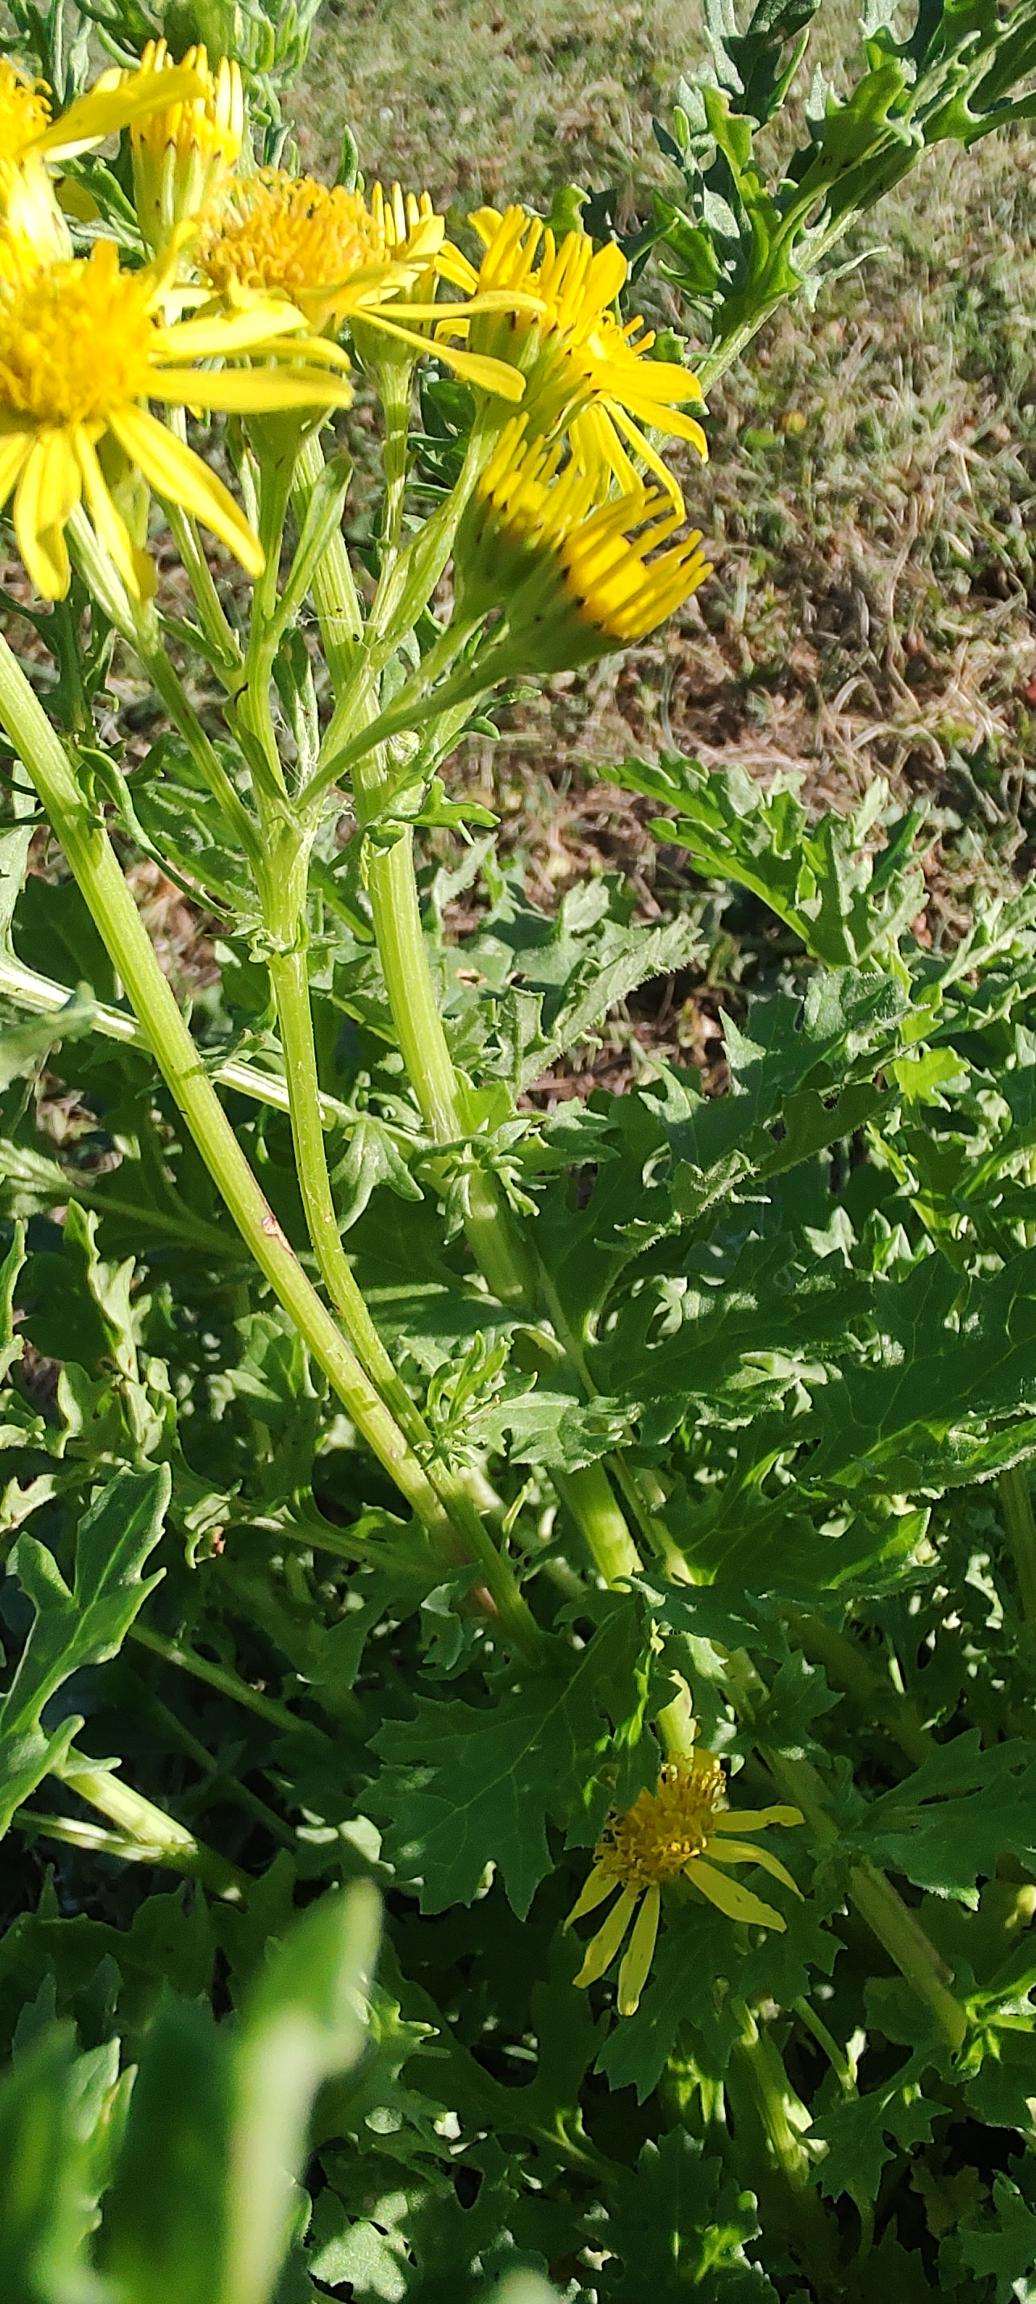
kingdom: Plantae
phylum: Tracheophyta
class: Magnoliopsida
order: Asterales
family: Asteraceae
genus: Jacobaea
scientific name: Jacobaea vulgaris
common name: Eng-brandbæger
